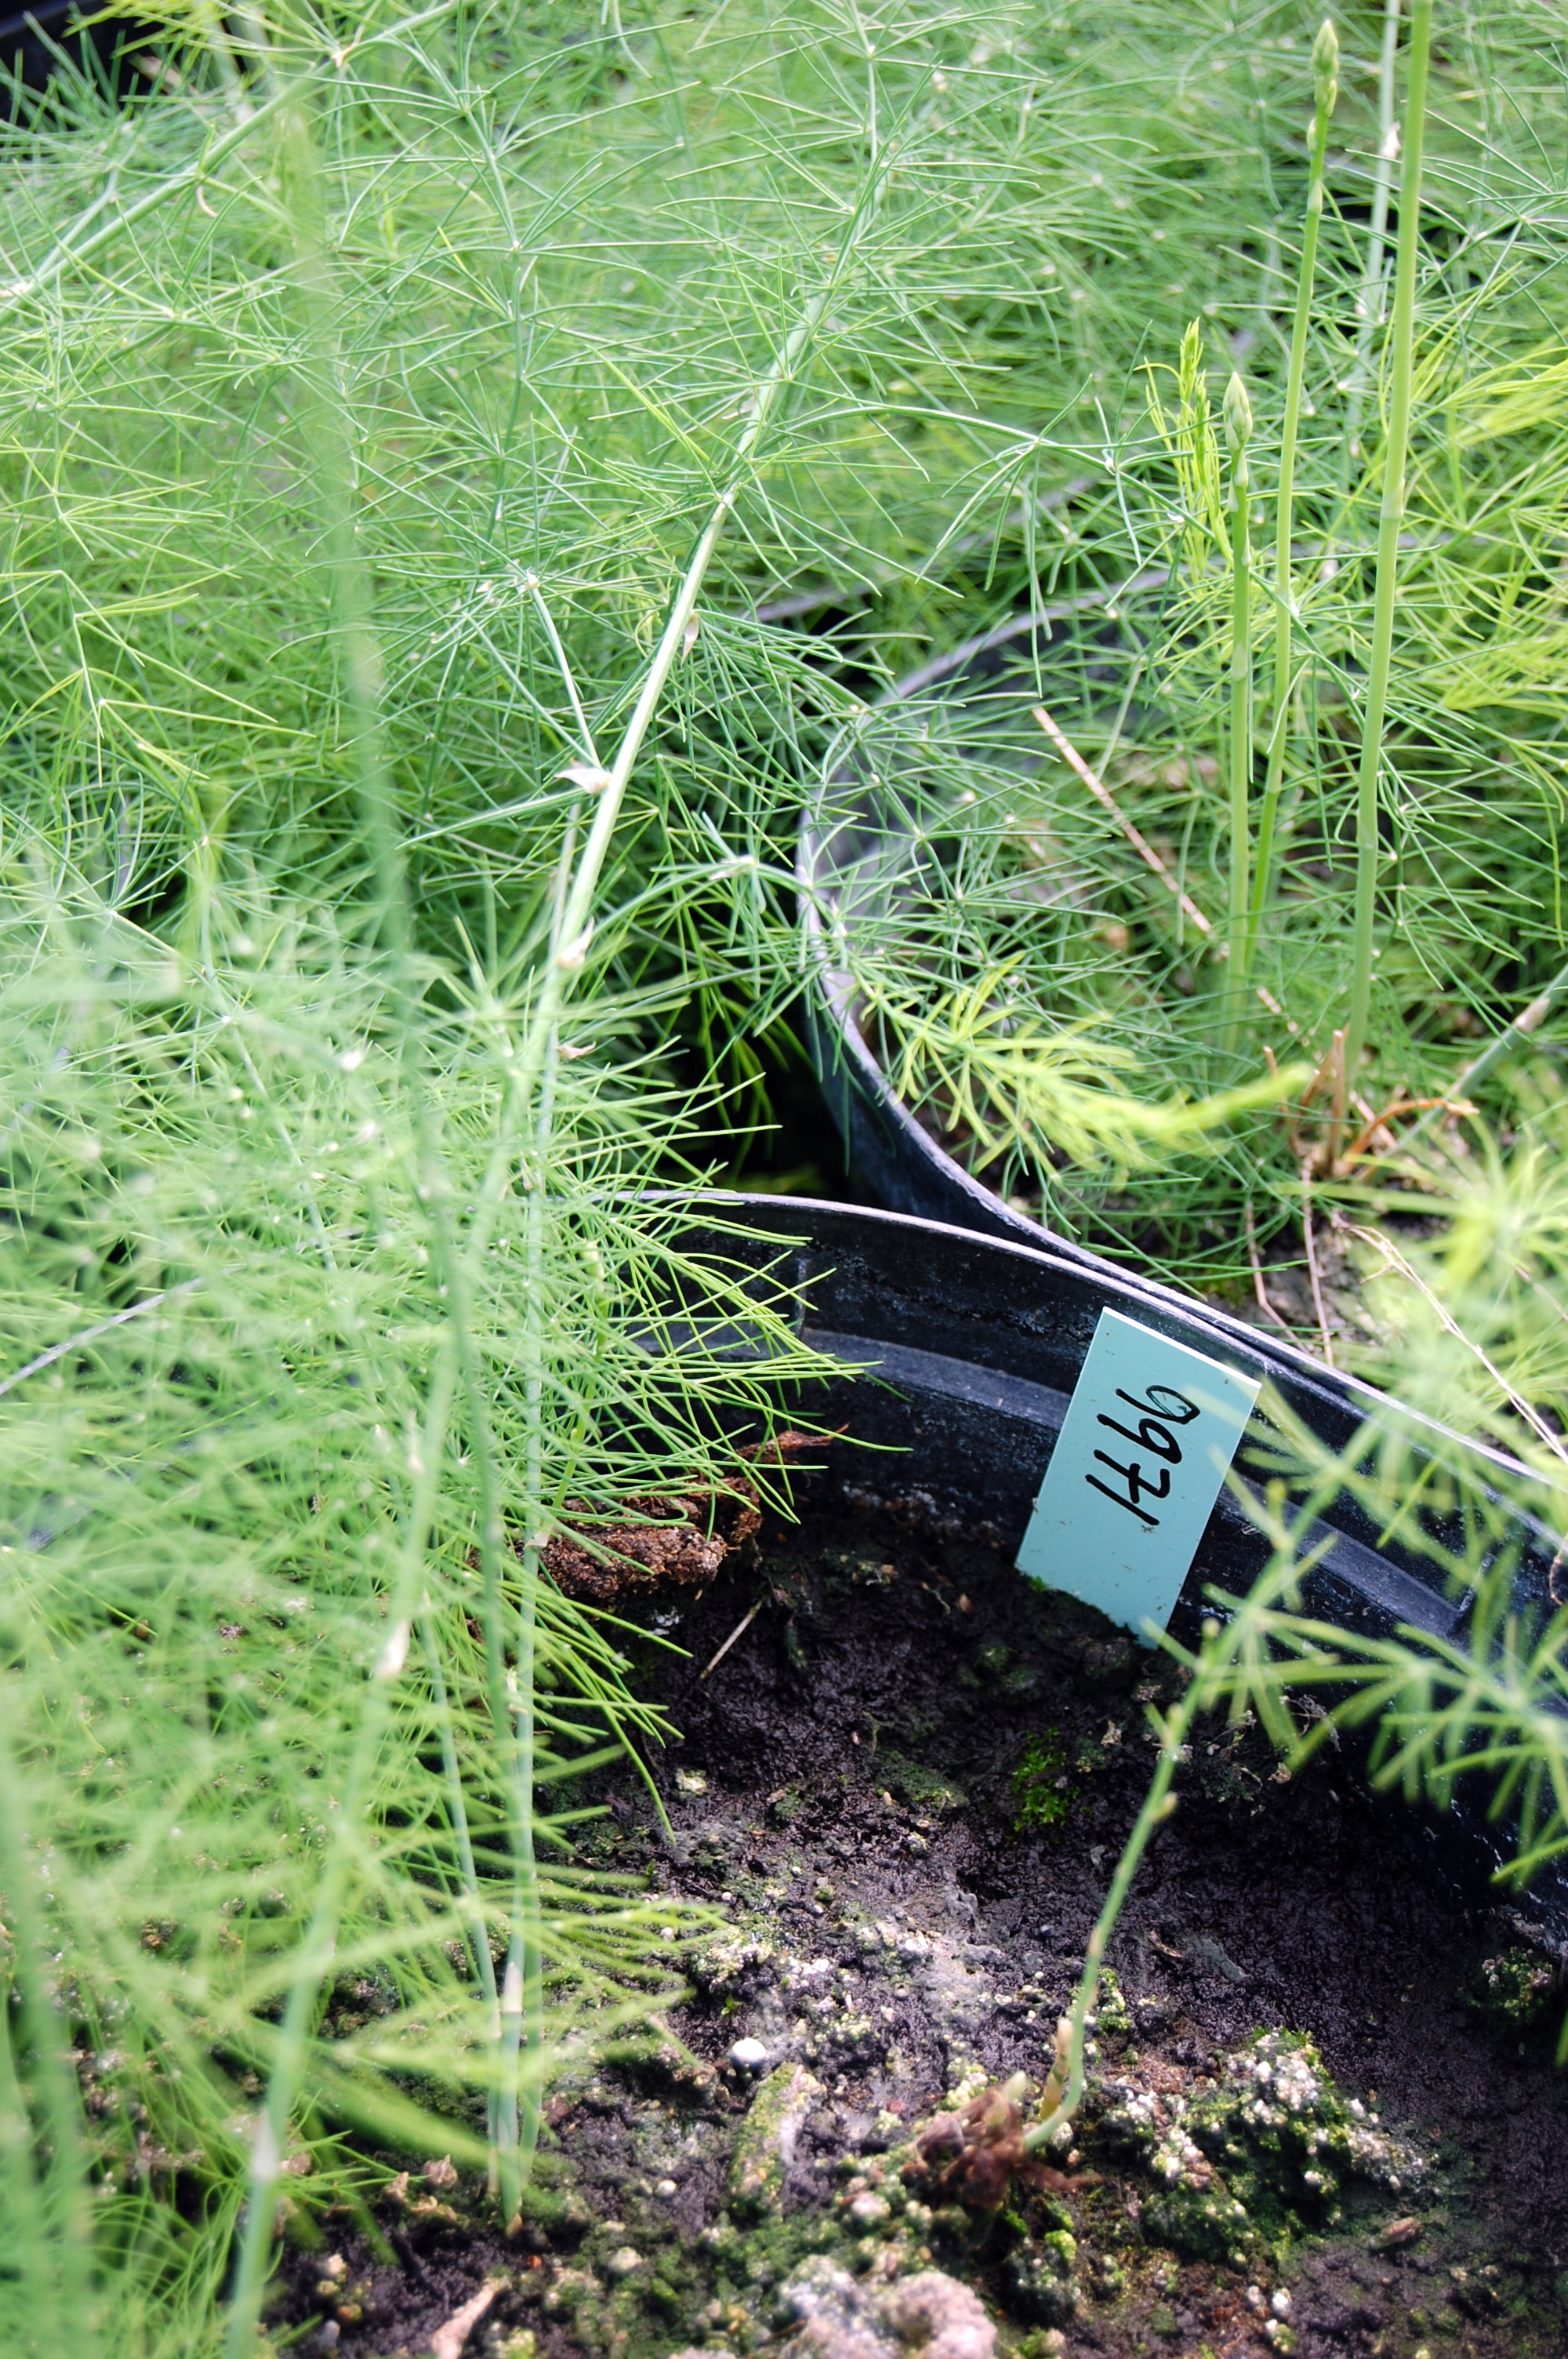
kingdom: Plantae
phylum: Tracheophyta
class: Liliopsida
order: Asparagales
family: Asparagaceae
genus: Asparagus
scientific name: Asparagus officinalis
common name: Garden asparagus
